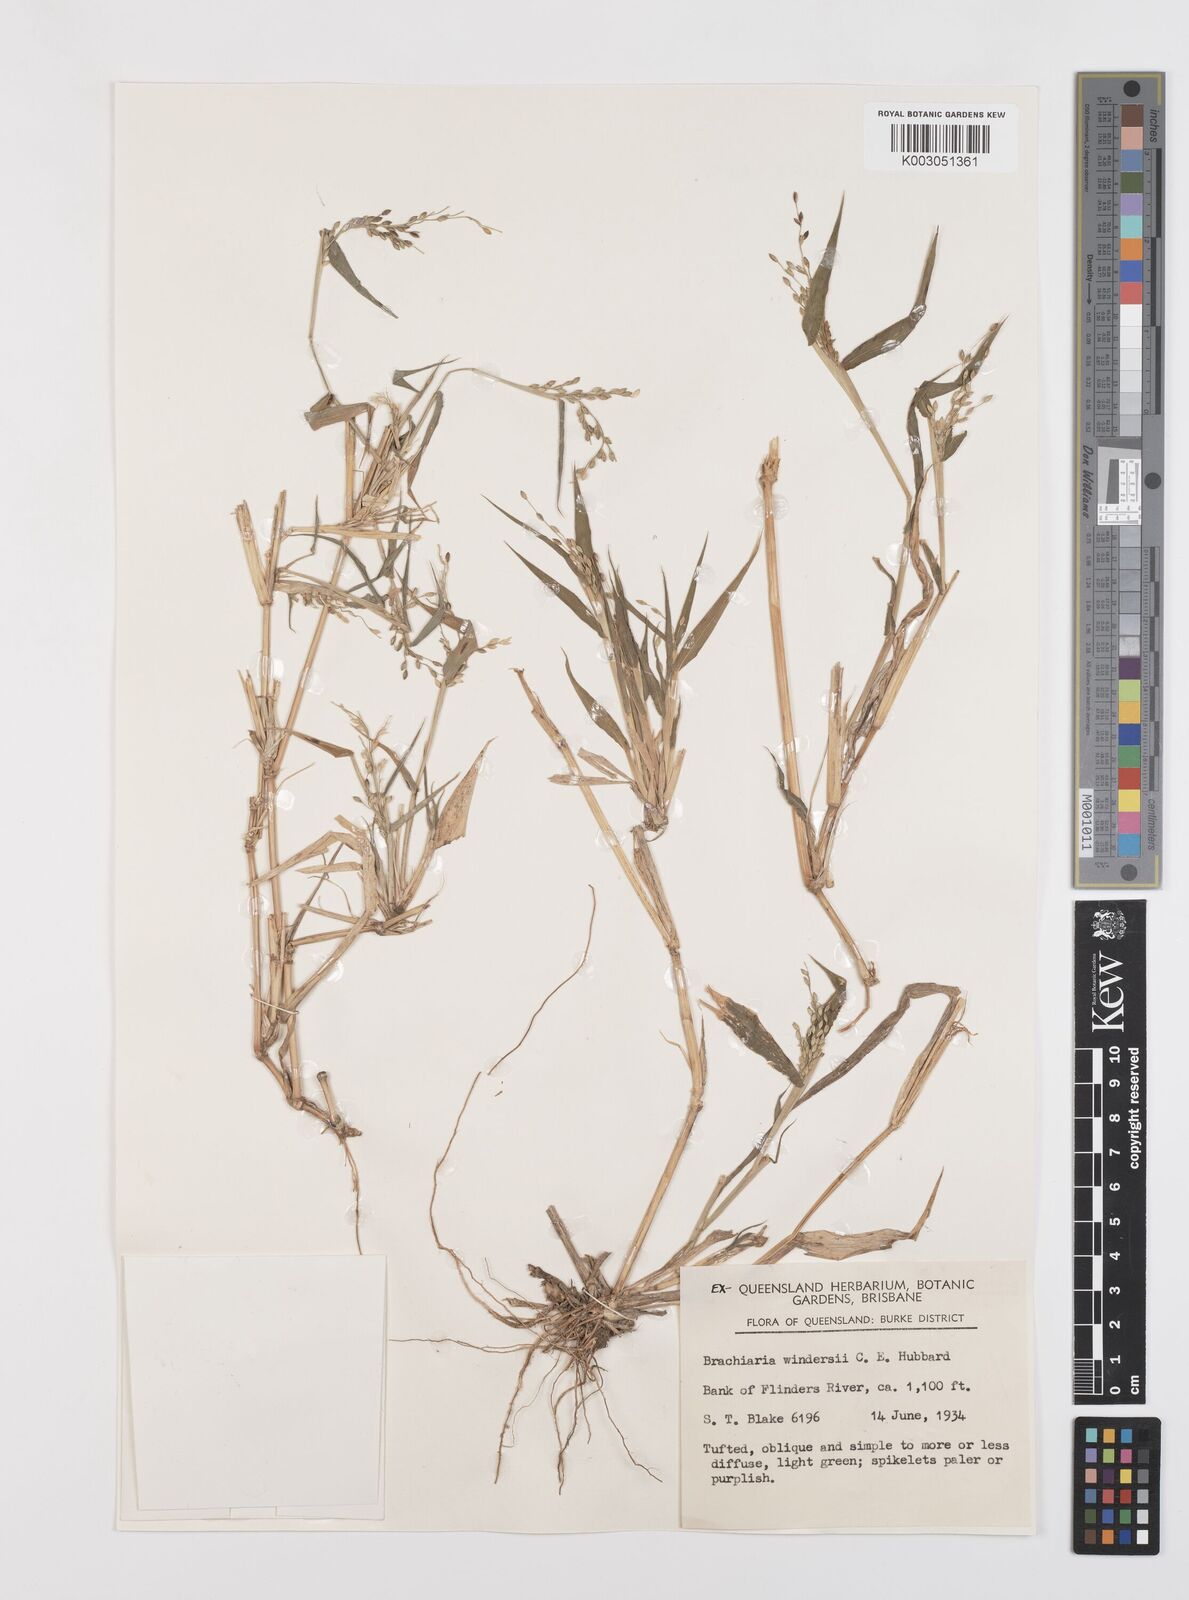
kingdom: Plantae
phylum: Tracheophyta
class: Liliopsida
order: Poales
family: Poaceae
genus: Urochloa
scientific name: Urochloa whiteana
